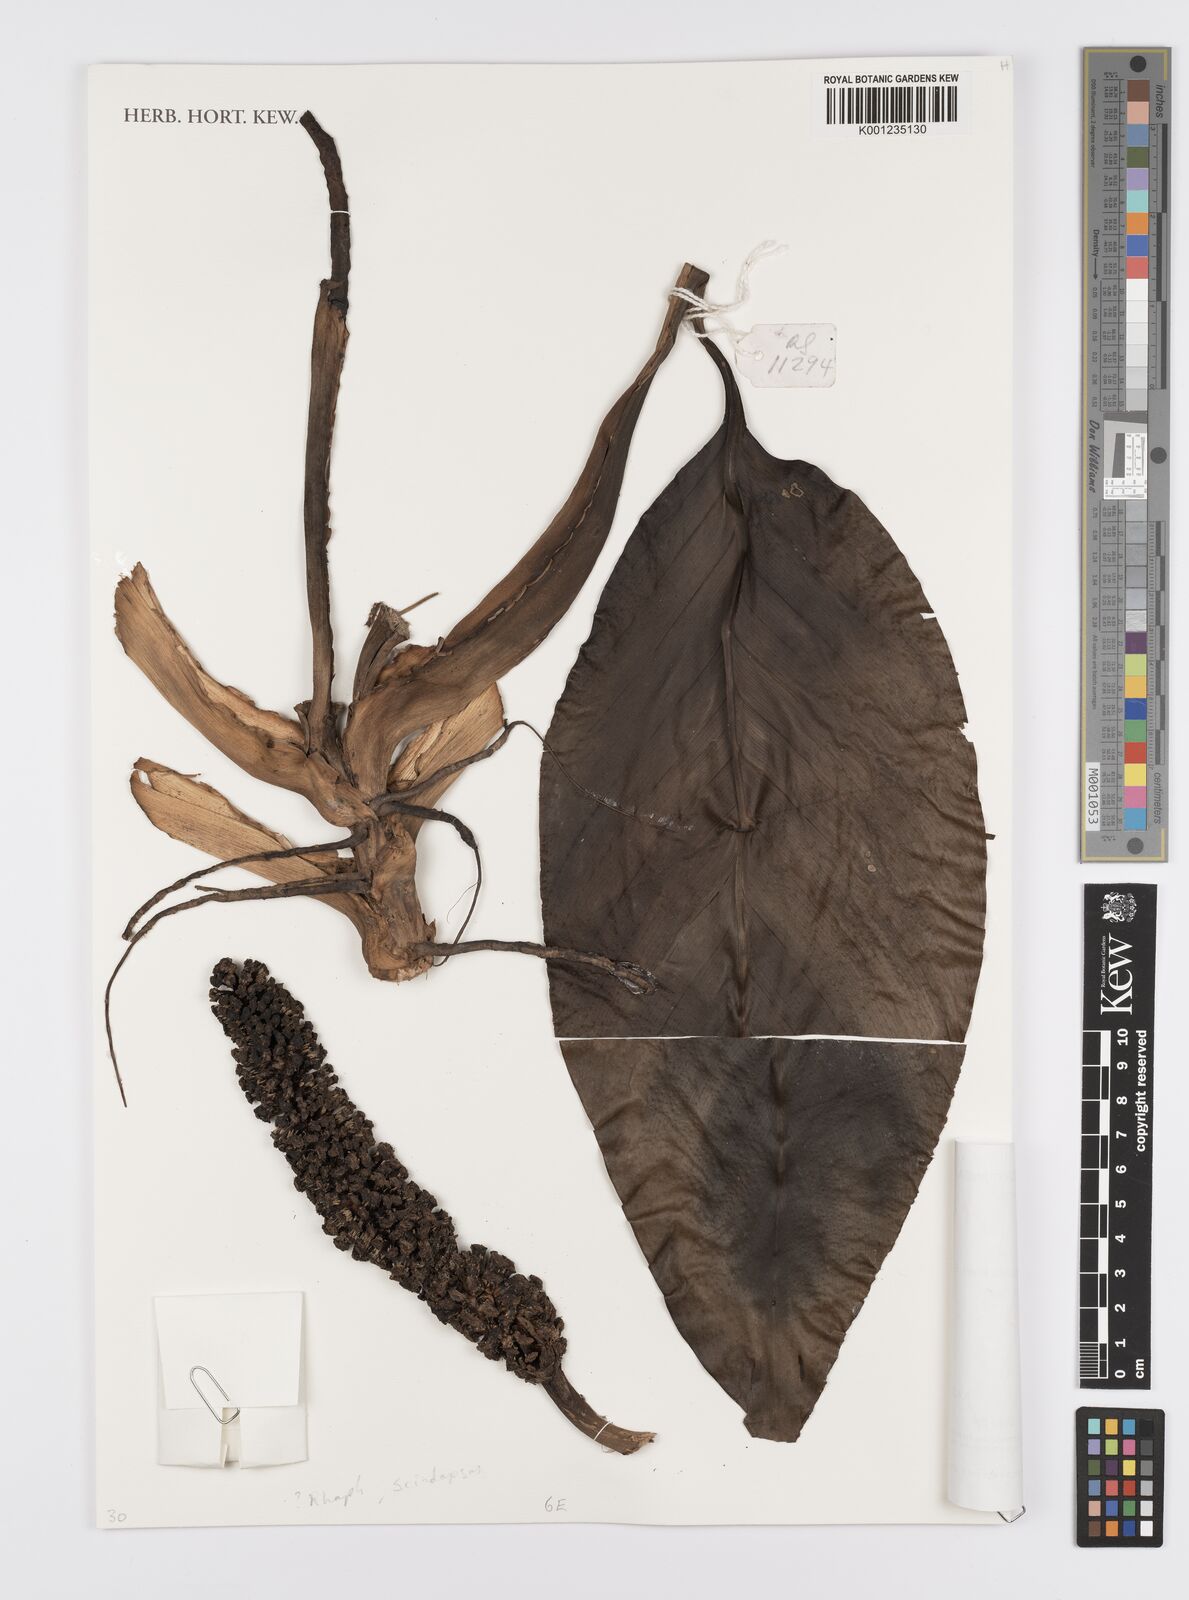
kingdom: Plantae
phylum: Tracheophyta
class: Liliopsida
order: Alismatales
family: Araceae
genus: Scindapsus
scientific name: Scindapsus
